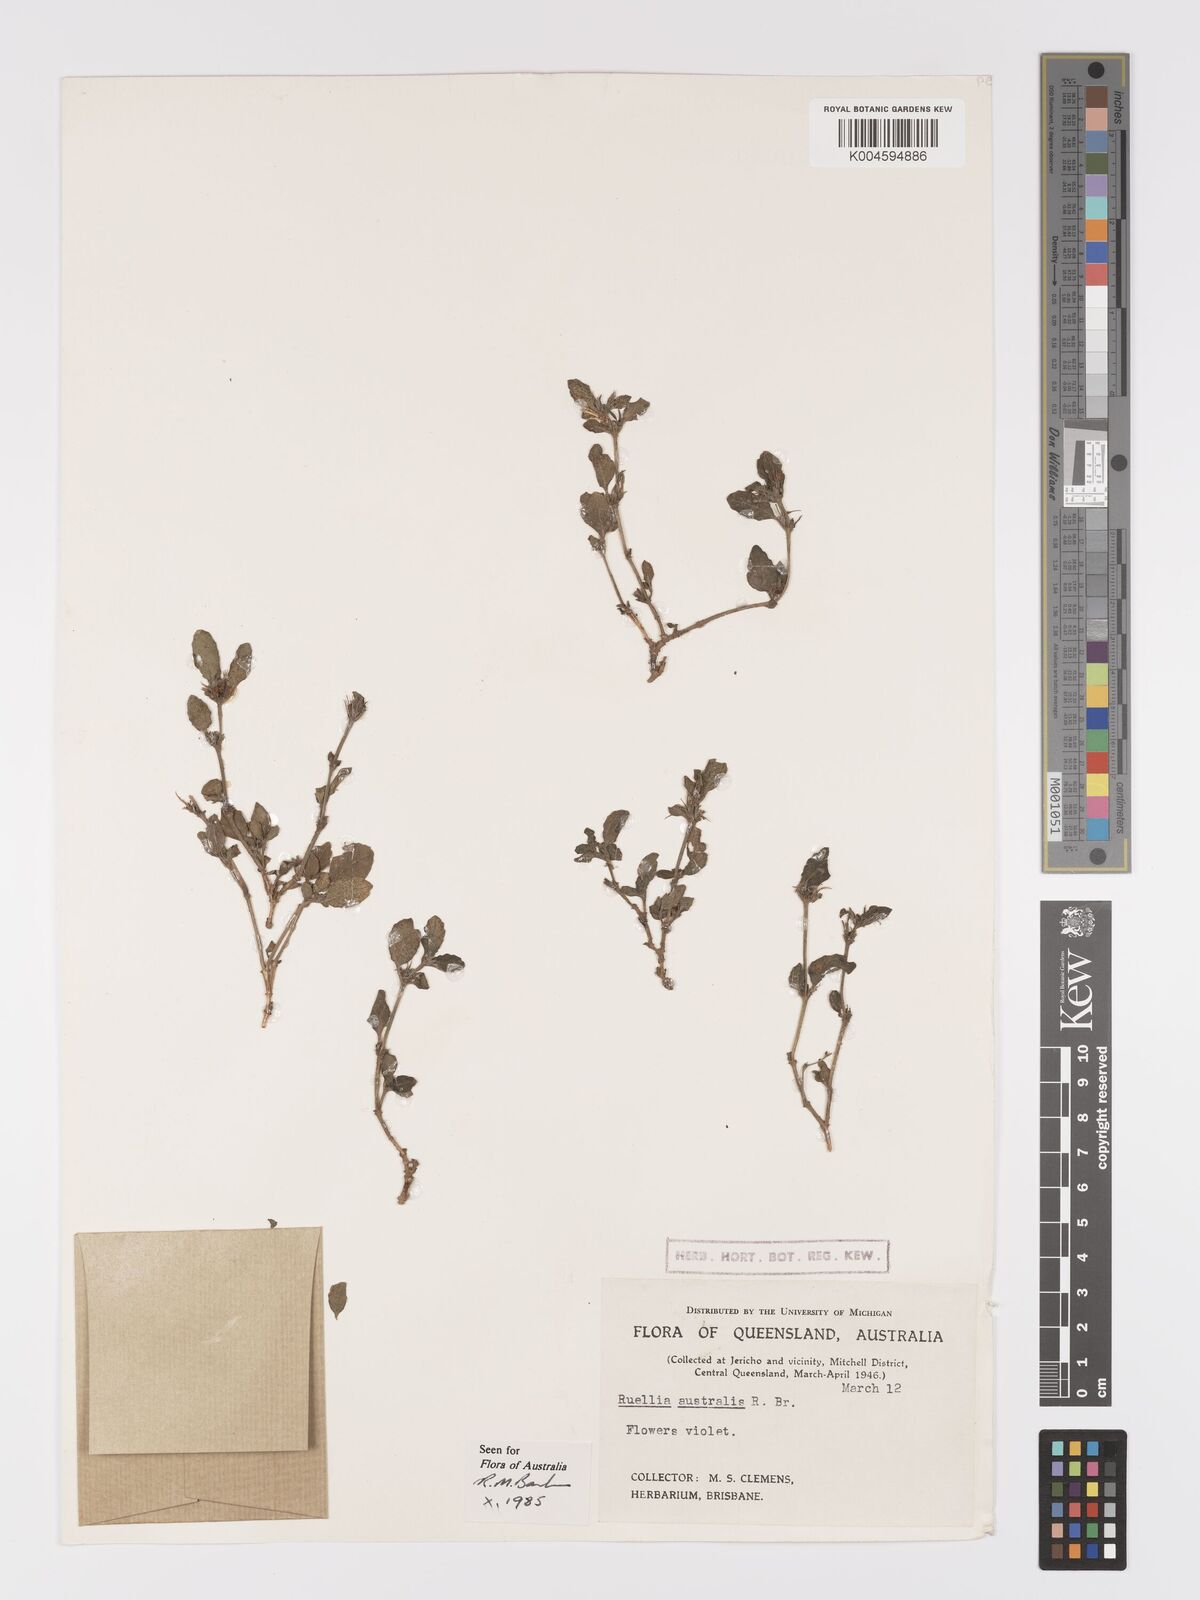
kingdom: Plantae
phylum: Tracheophyta
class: Magnoliopsida
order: Lamiales
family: Acanthaceae
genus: Brunoniella
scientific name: Brunoniella
